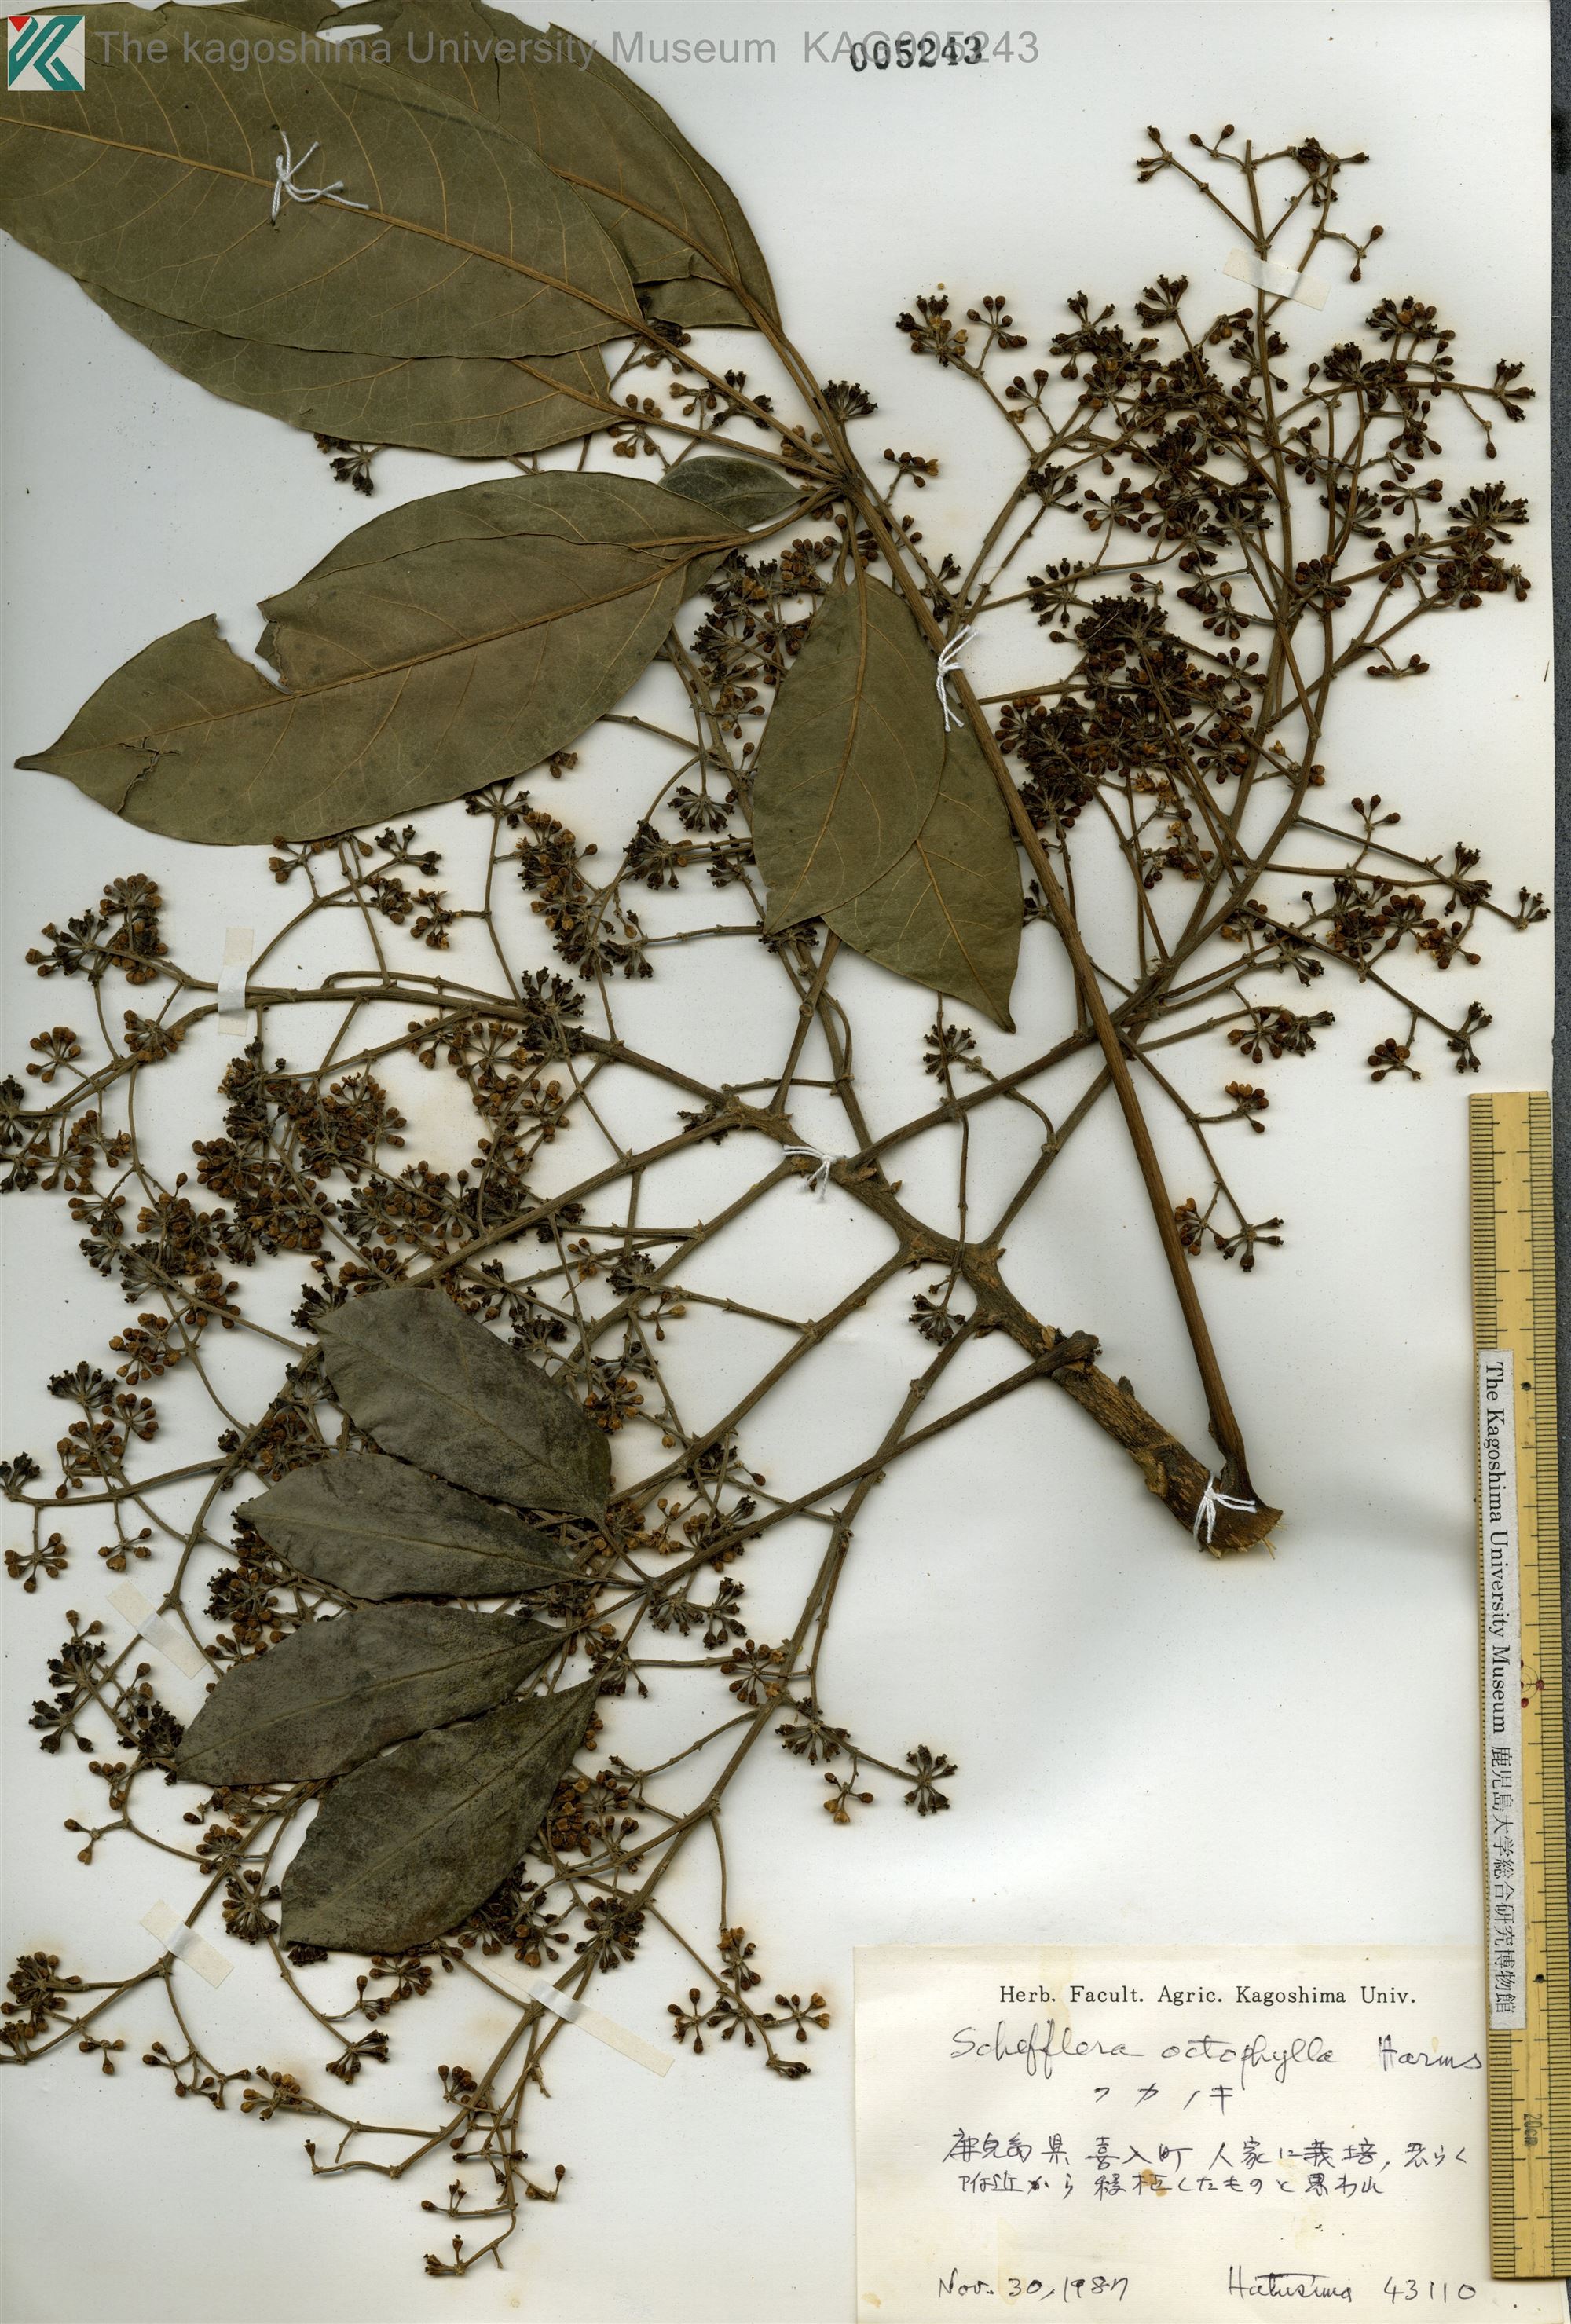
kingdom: Plantae
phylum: Tracheophyta
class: Magnoliopsida
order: Apiales
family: Araliaceae
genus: Heptapleurum
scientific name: Heptapleurum heptaphyllum
